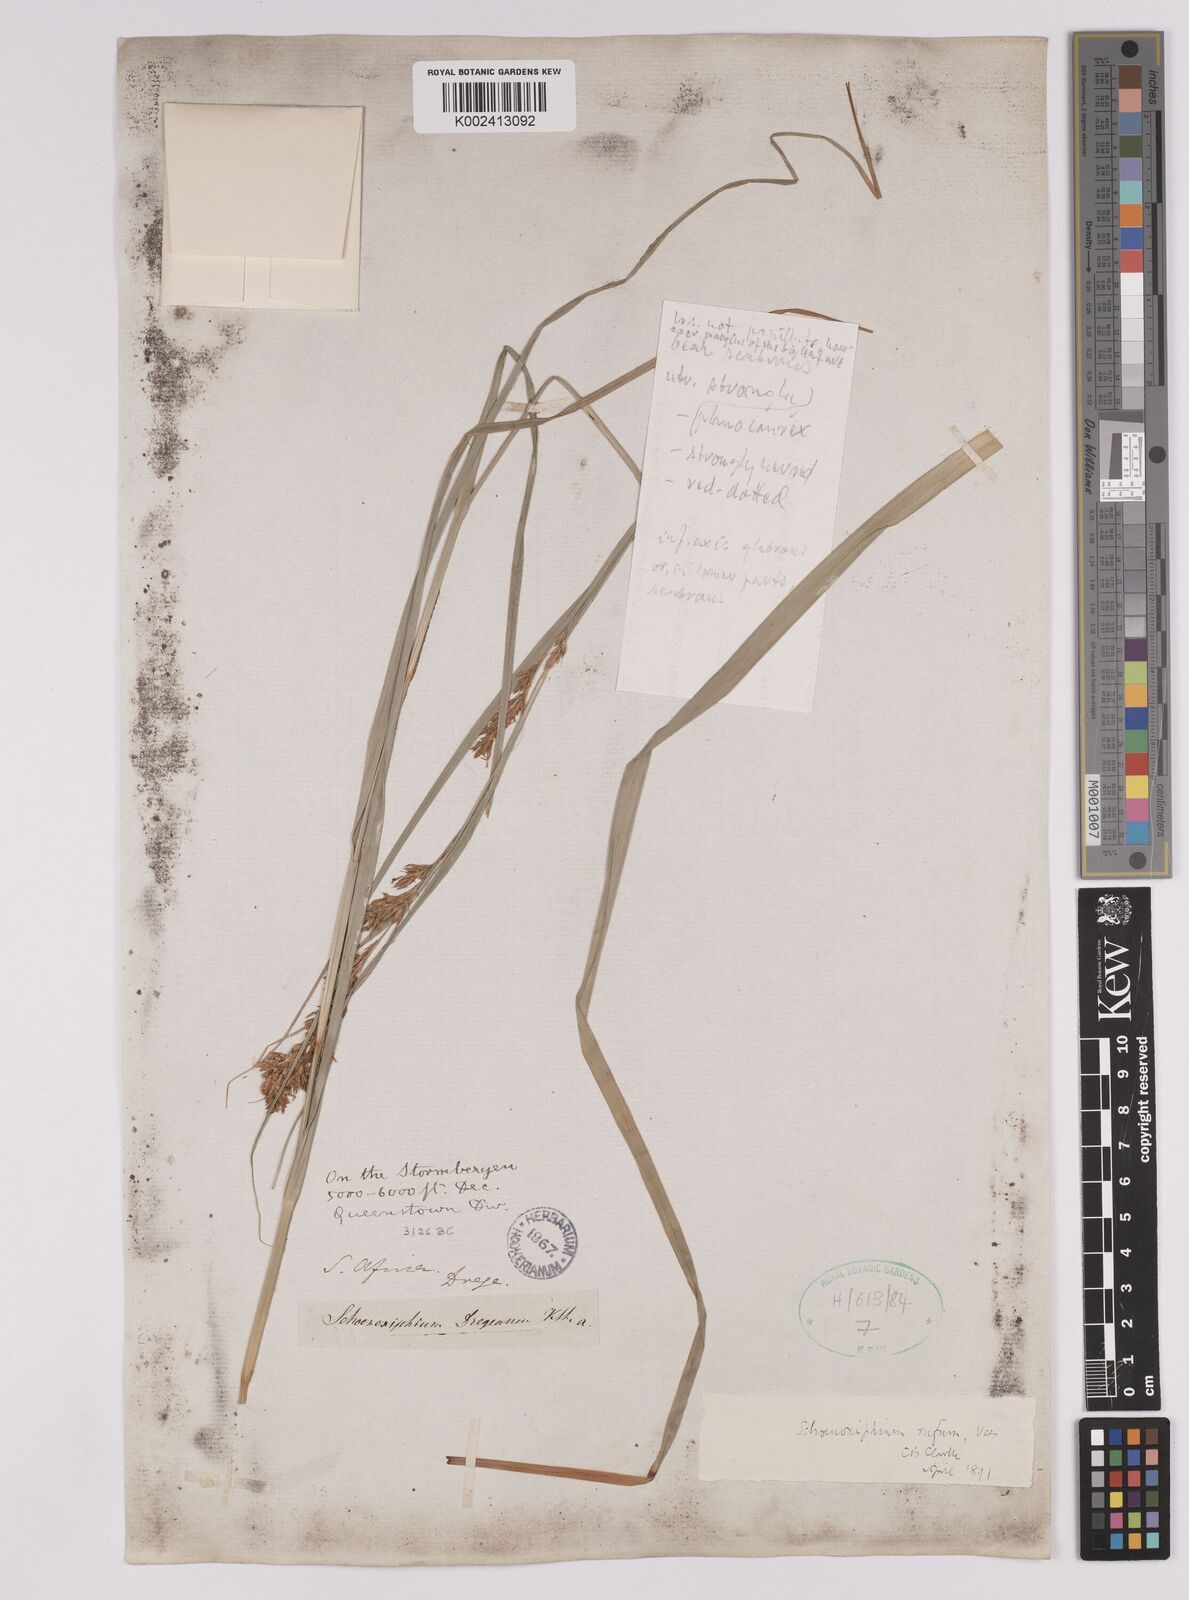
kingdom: Plantae
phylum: Tracheophyta
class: Liliopsida
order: Poales
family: Cyperaceae
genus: Carex
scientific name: Carex ludwigii
